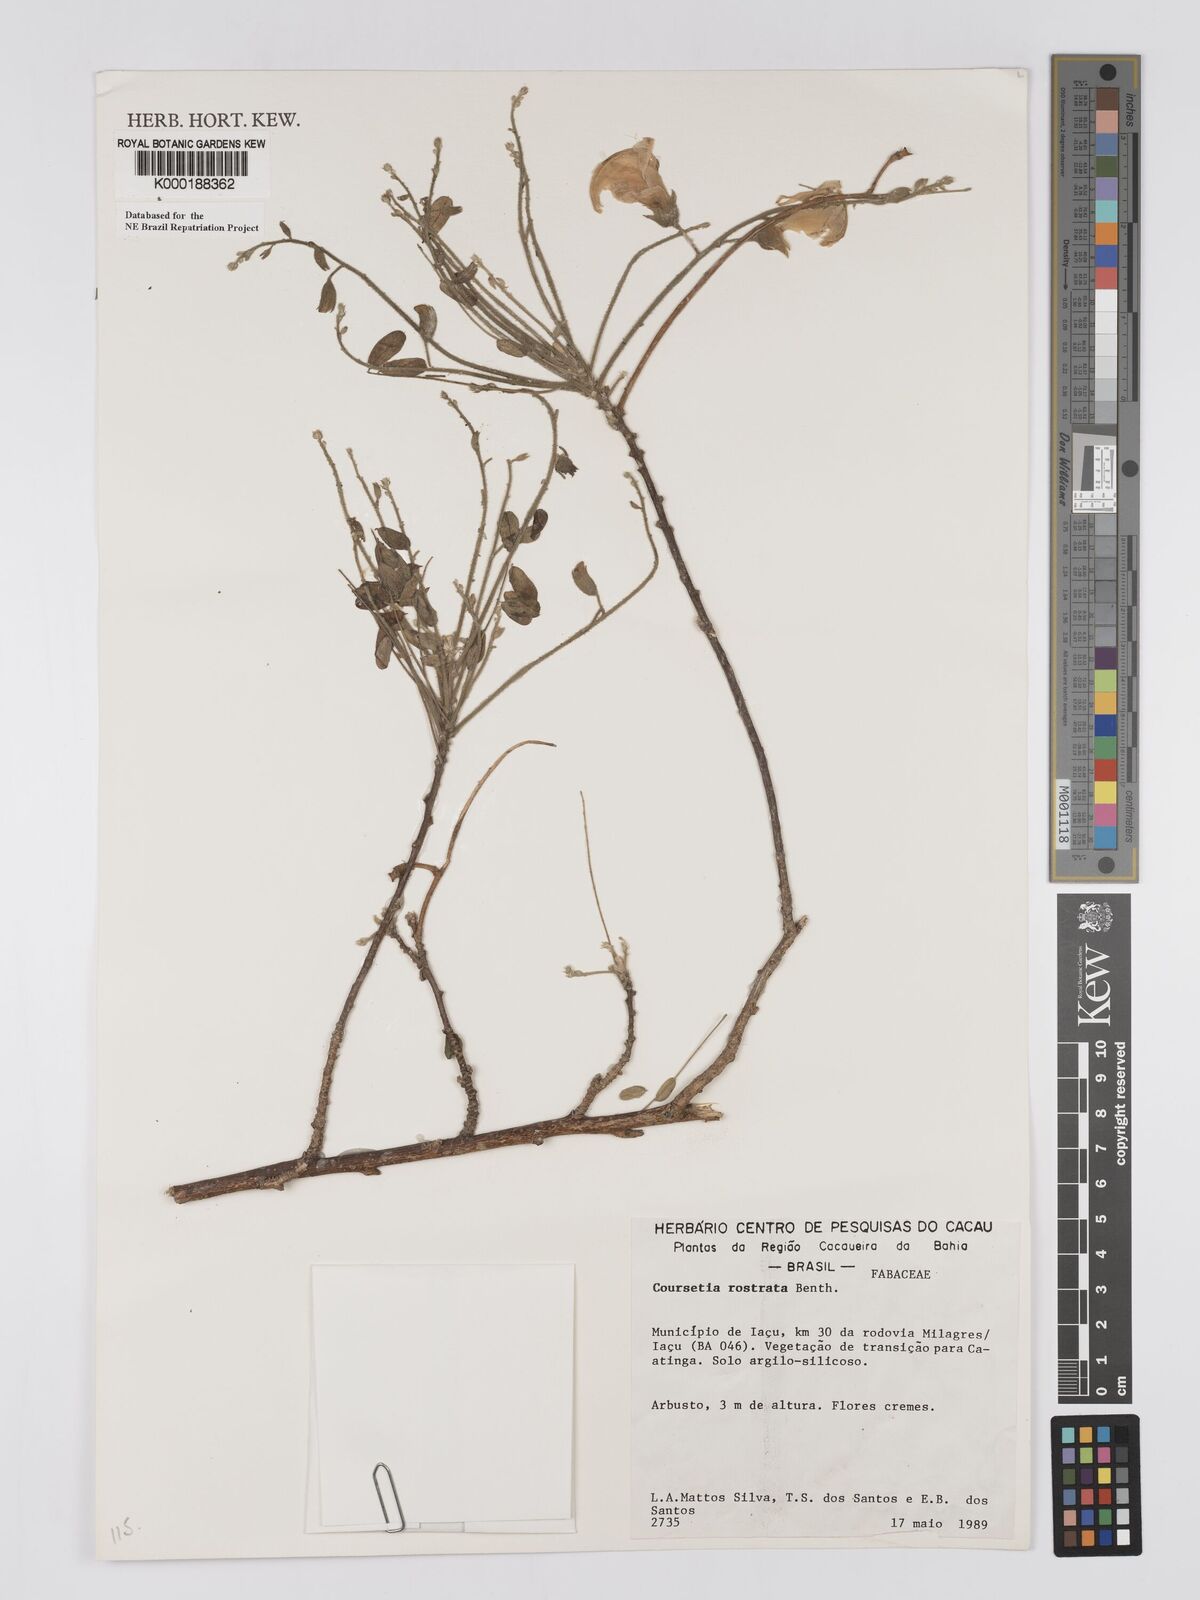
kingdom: Plantae
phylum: Tracheophyta
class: Magnoliopsida
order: Fabales
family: Fabaceae
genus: Coursetia
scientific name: Coursetia rostrata
